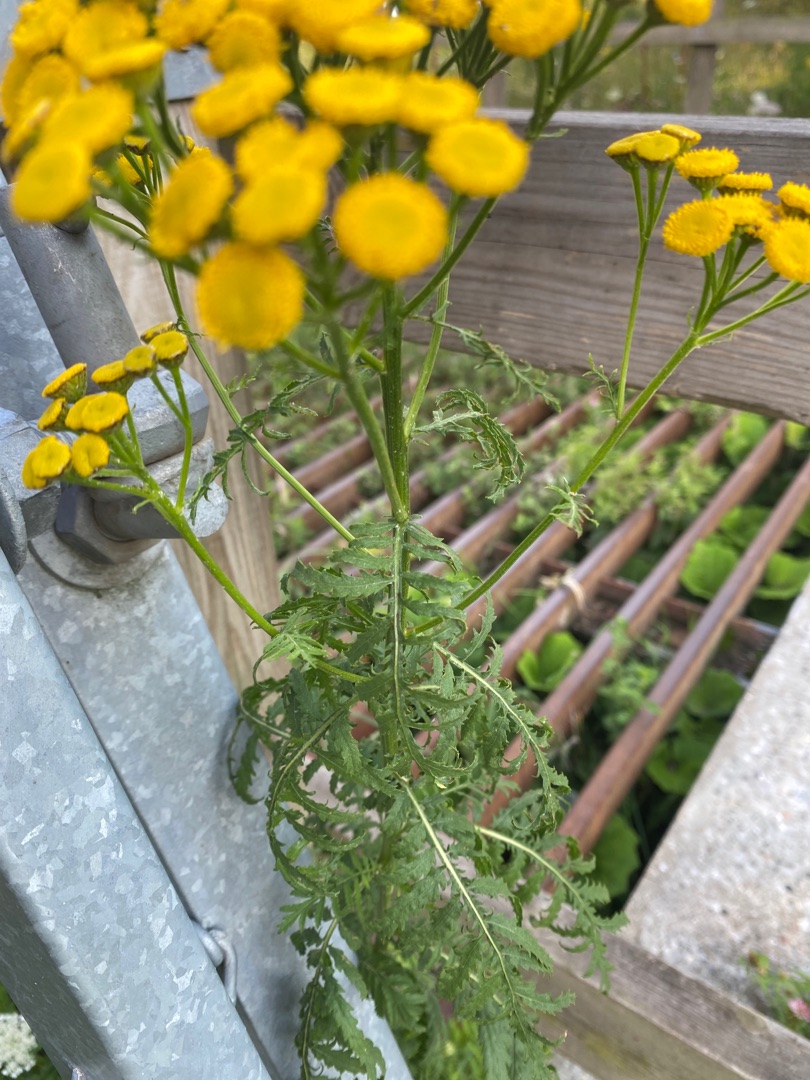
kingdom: Plantae
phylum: Tracheophyta
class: Magnoliopsida
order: Asterales
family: Asteraceae
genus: Tanacetum
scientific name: Tanacetum vulgare
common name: Rejnfan
